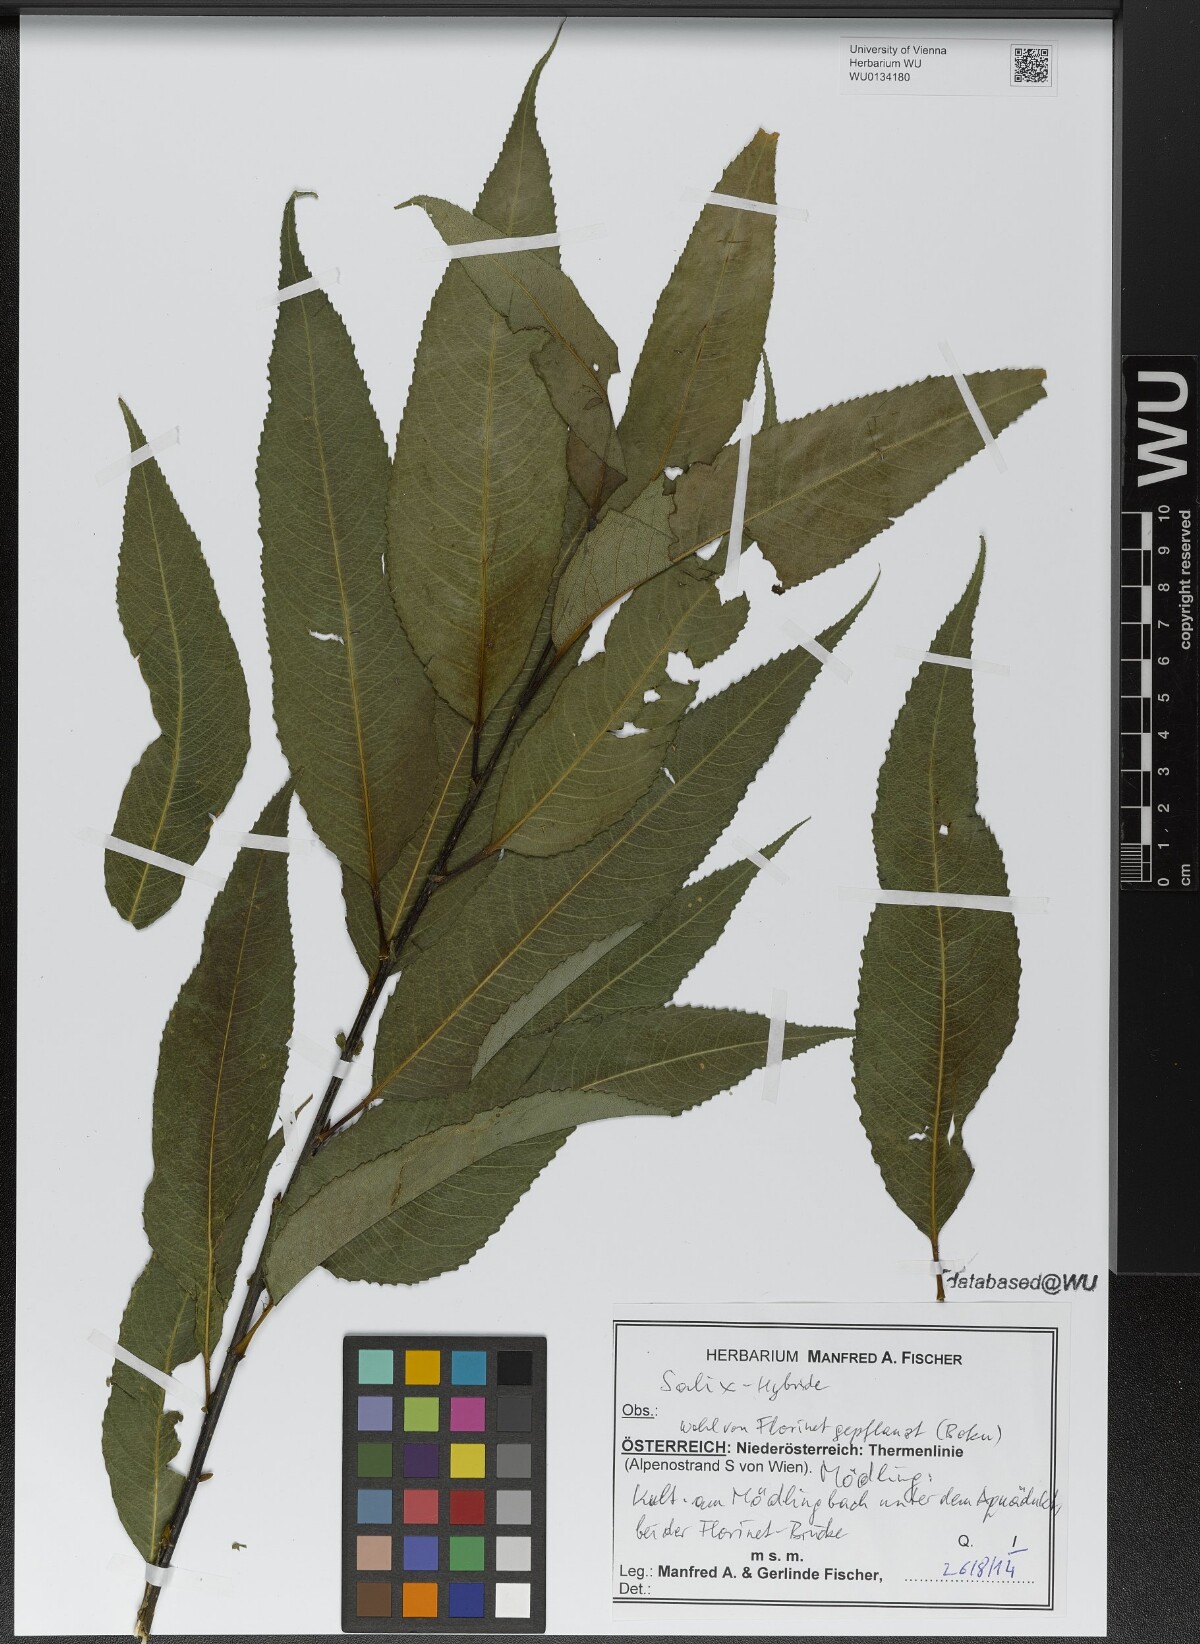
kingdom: Plantae
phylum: Tracheophyta
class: Magnoliopsida
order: Malpighiales
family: Salicaceae
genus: Salix
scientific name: Salix
